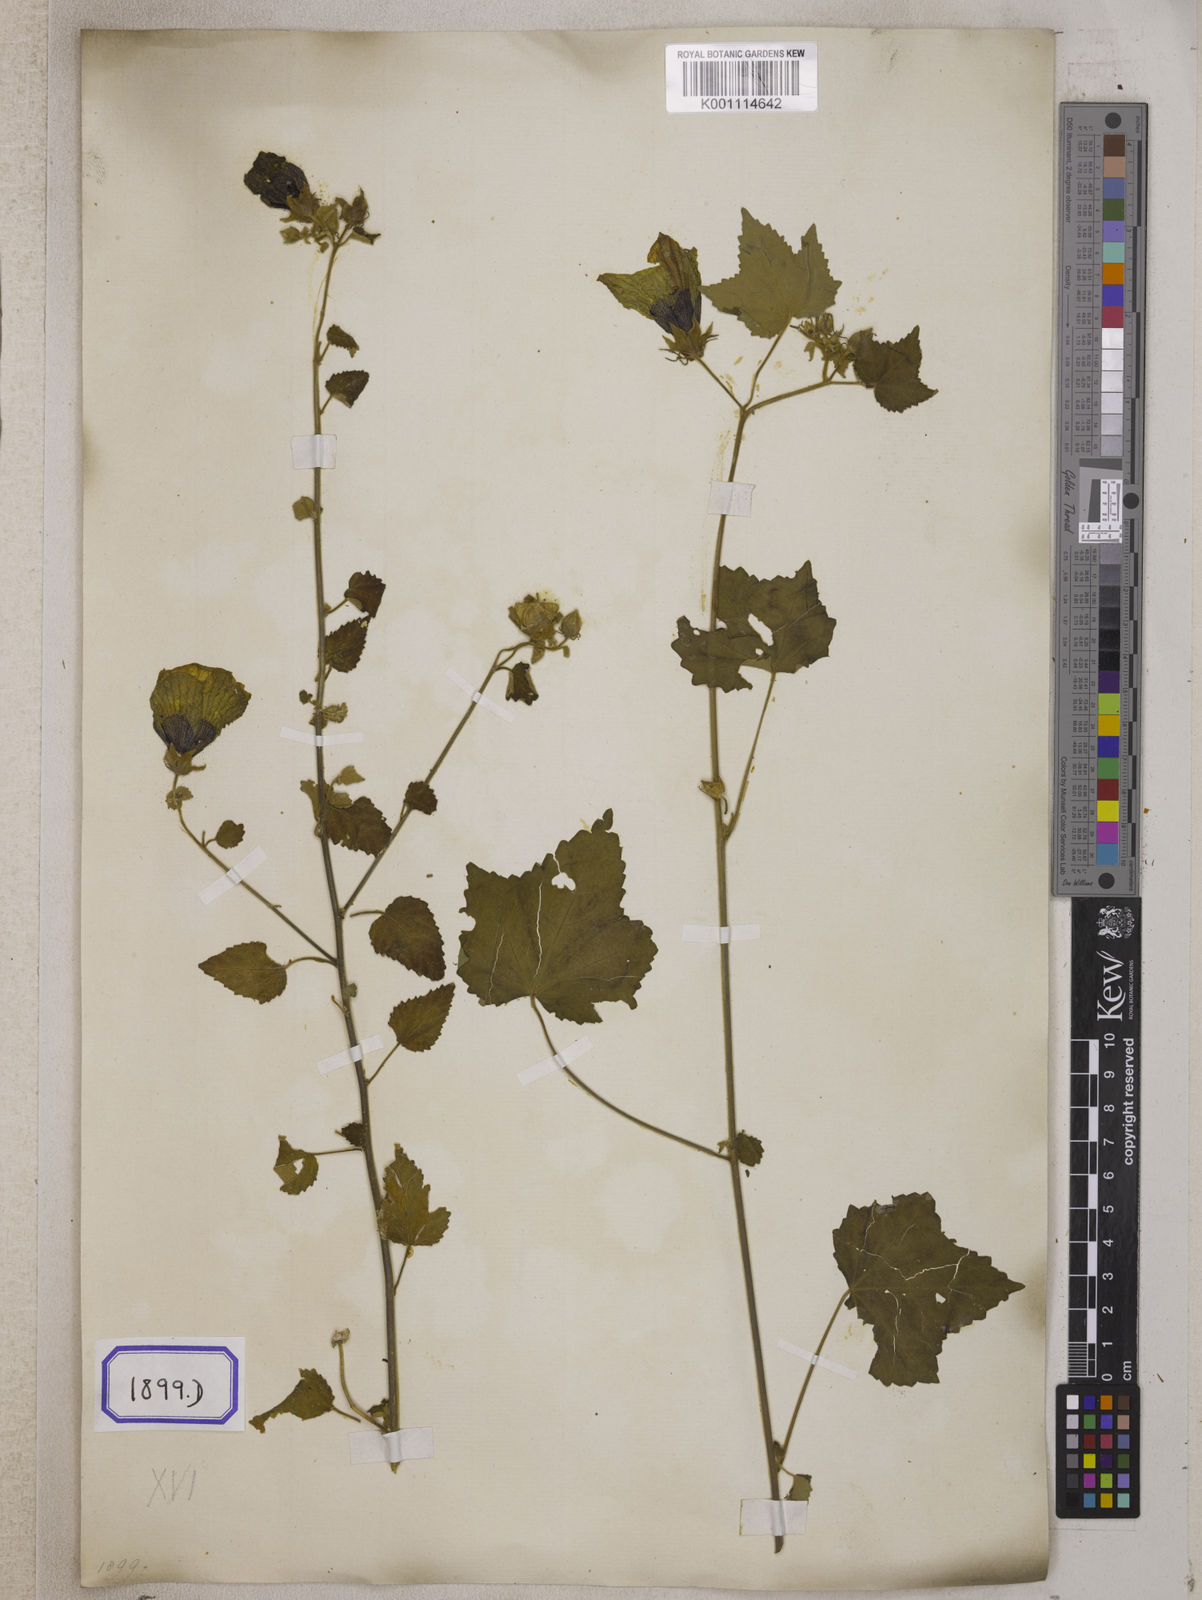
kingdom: Plantae
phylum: Tracheophyta
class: Magnoliopsida
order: Malvales
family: Malvaceae
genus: Hibiscus
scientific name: Hibiscus vitifolius
